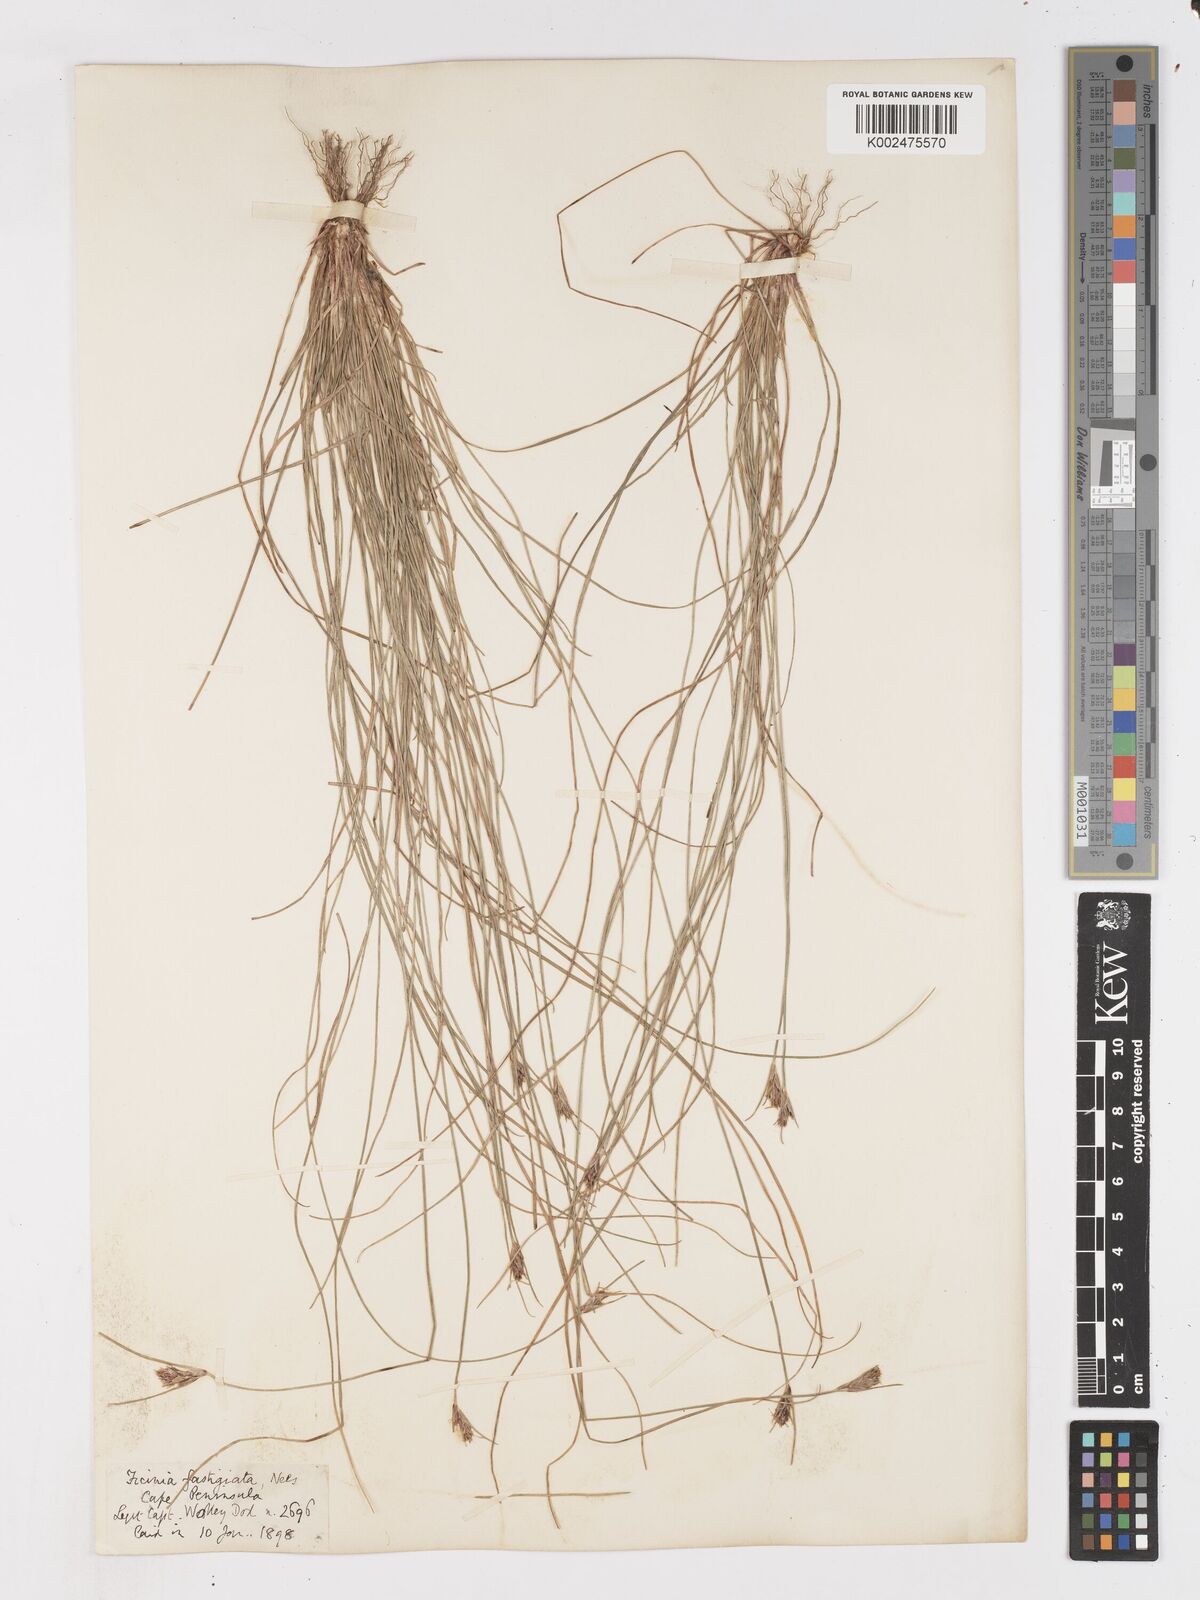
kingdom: Plantae
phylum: Tracheophyta
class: Liliopsida
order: Poales
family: Cyperaceae
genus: Ficinia
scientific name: Ficinia fastigiata
